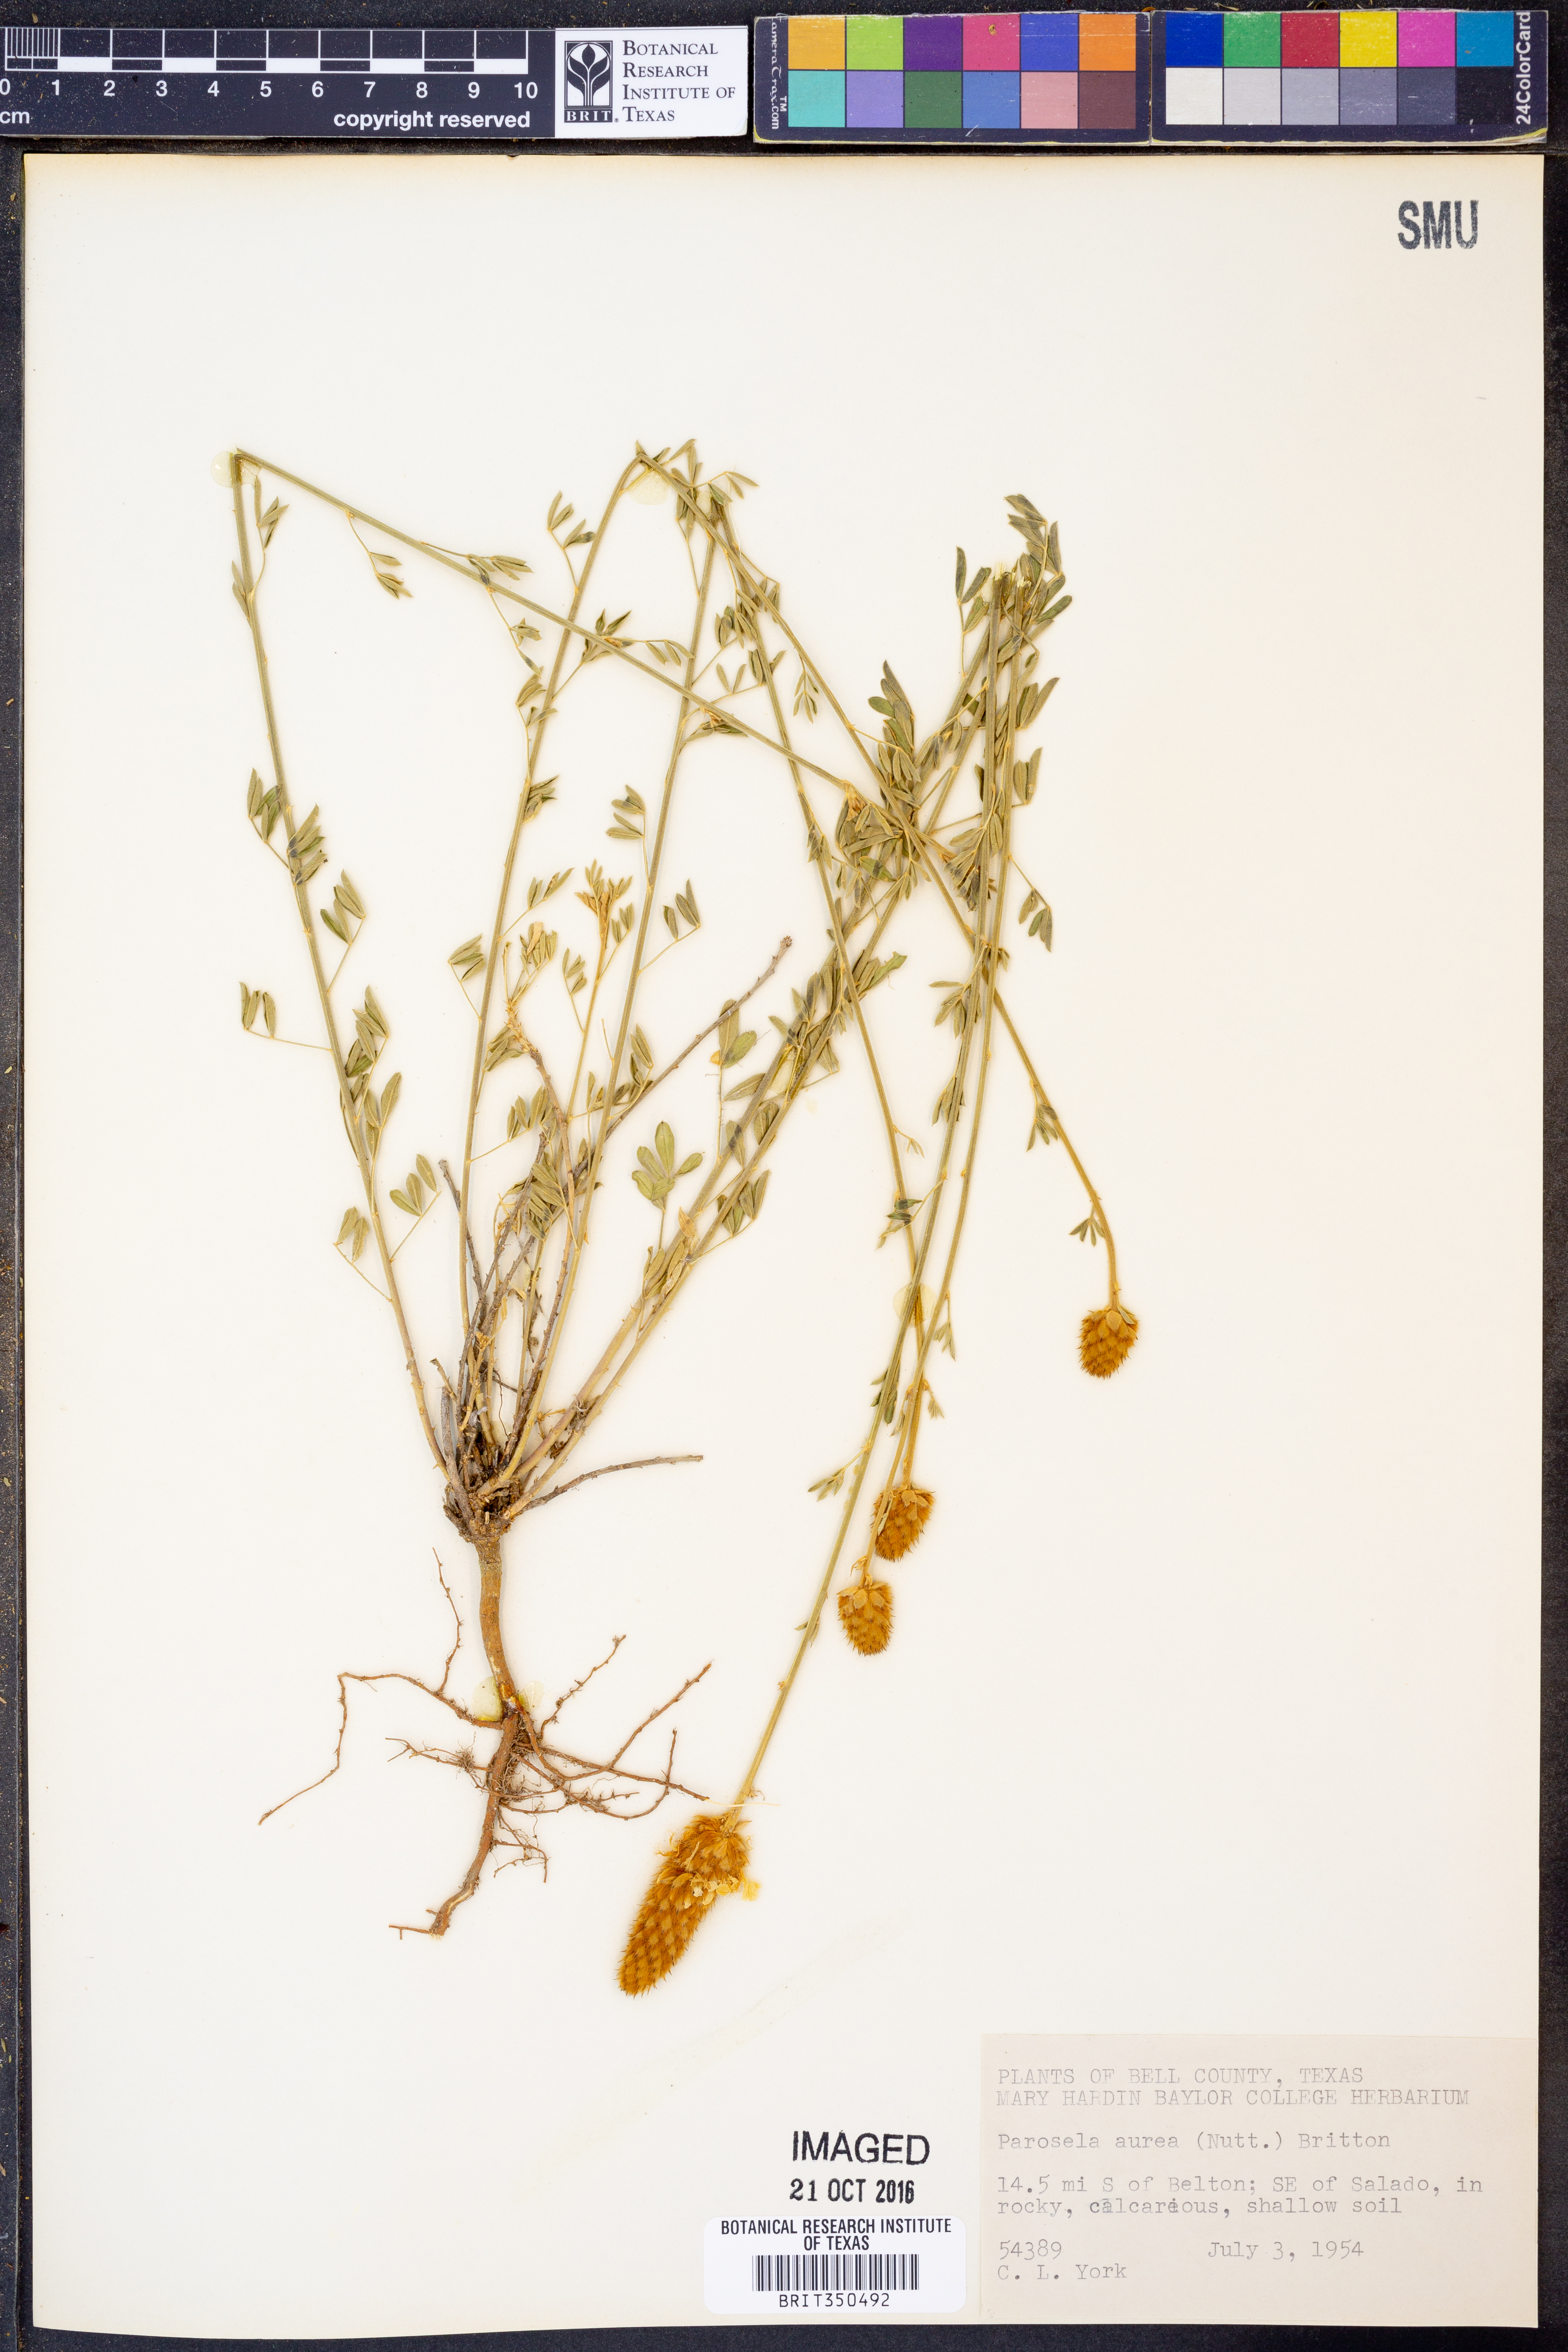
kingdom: Plantae
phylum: Tracheophyta
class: Magnoliopsida
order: Fabales
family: Fabaceae
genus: Dalea
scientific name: Dalea cliffortiana
